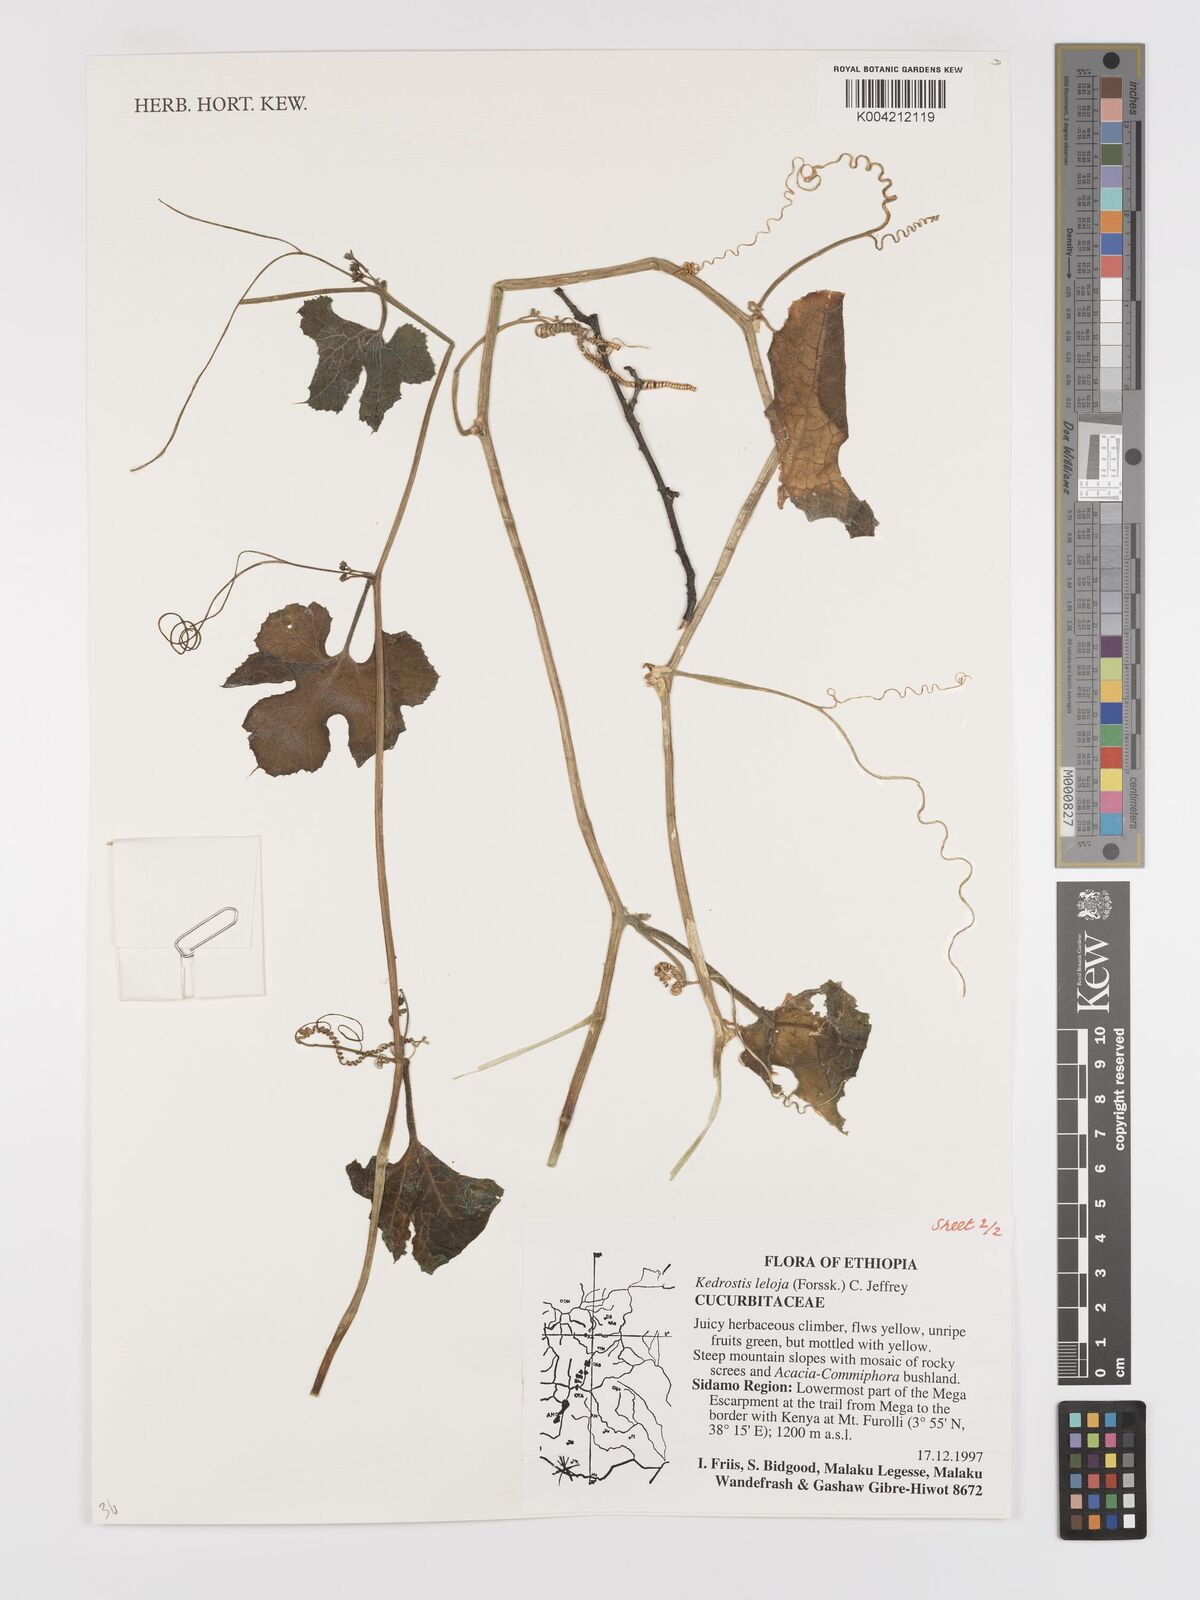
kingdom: Plantae
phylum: Tracheophyta
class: Magnoliopsida
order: Cucurbitales
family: Cucurbitaceae
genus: Kedrostis
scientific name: Kedrostis abdallae
